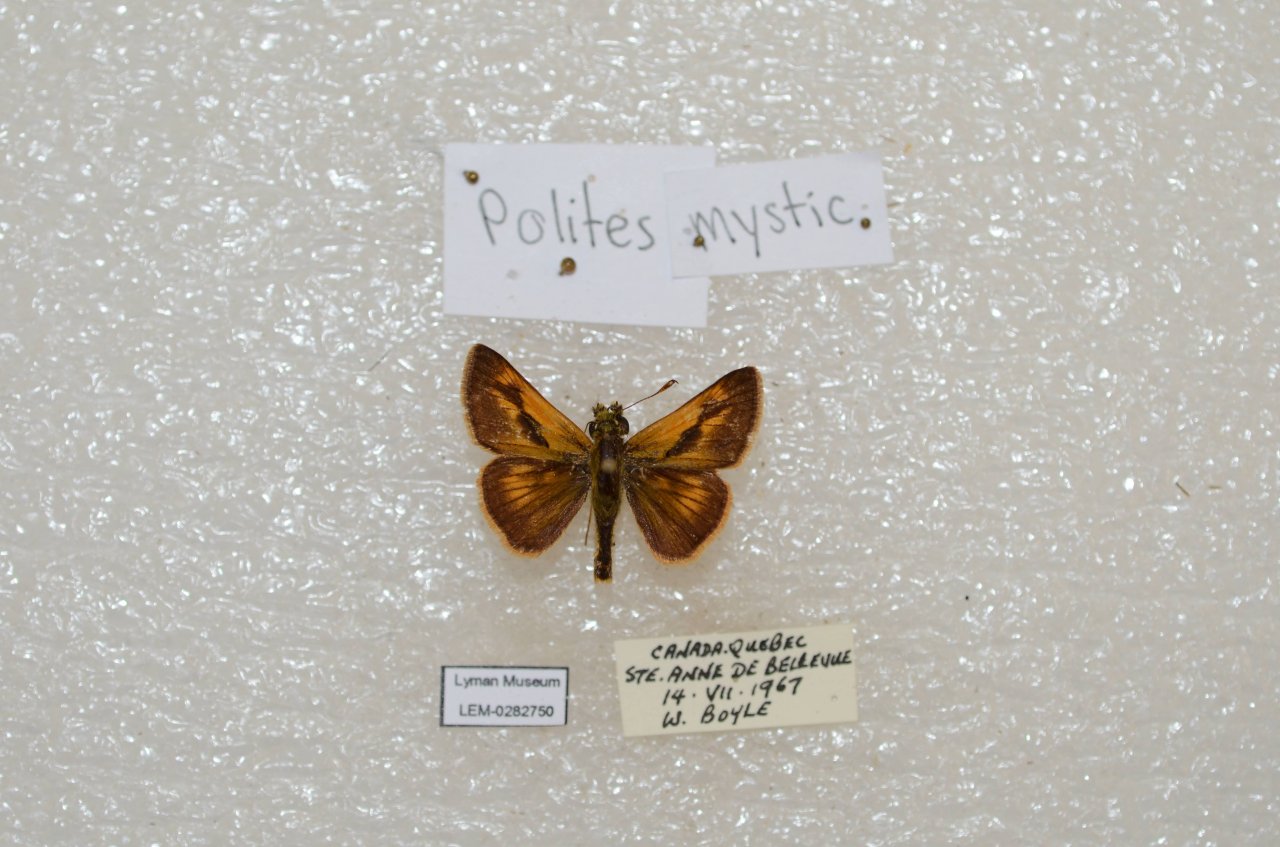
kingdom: Animalia
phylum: Arthropoda
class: Insecta
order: Lepidoptera
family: Hesperiidae
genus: Polites
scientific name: Polites
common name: Long Dash Skipper
